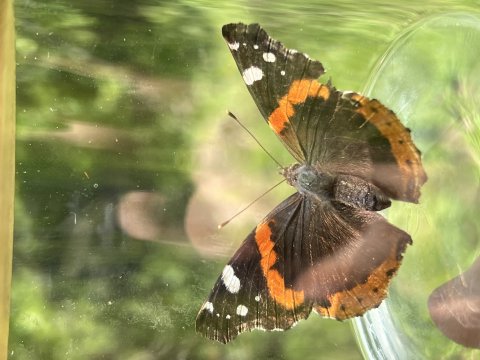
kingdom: Animalia
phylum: Arthropoda
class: Insecta
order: Lepidoptera
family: Nymphalidae
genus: Vanessa
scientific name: Vanessa atalanta
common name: Red Admiral
